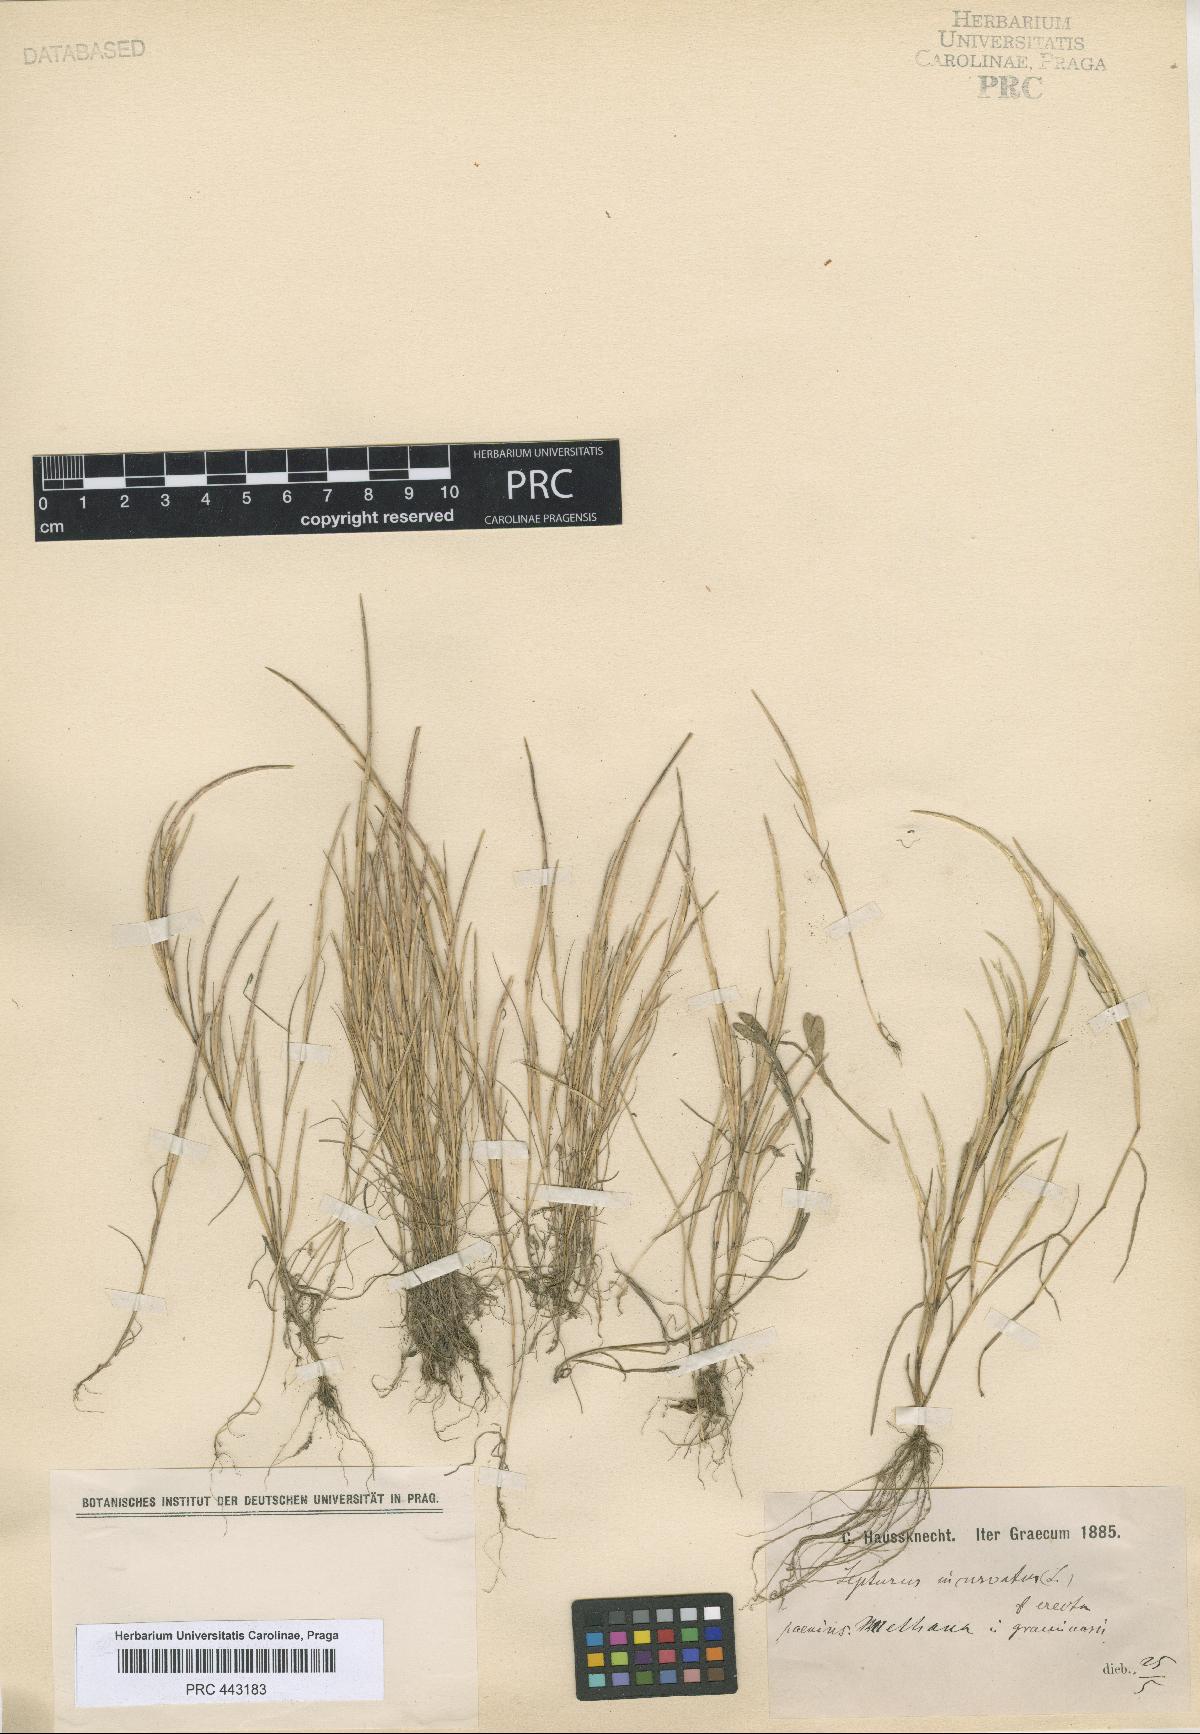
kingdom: Plantae
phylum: Tracheophyta
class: Liliopsida
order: Poales
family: Poaceae
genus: Parapholis
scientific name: Parapholis incurva
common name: Curved sicklegrass
